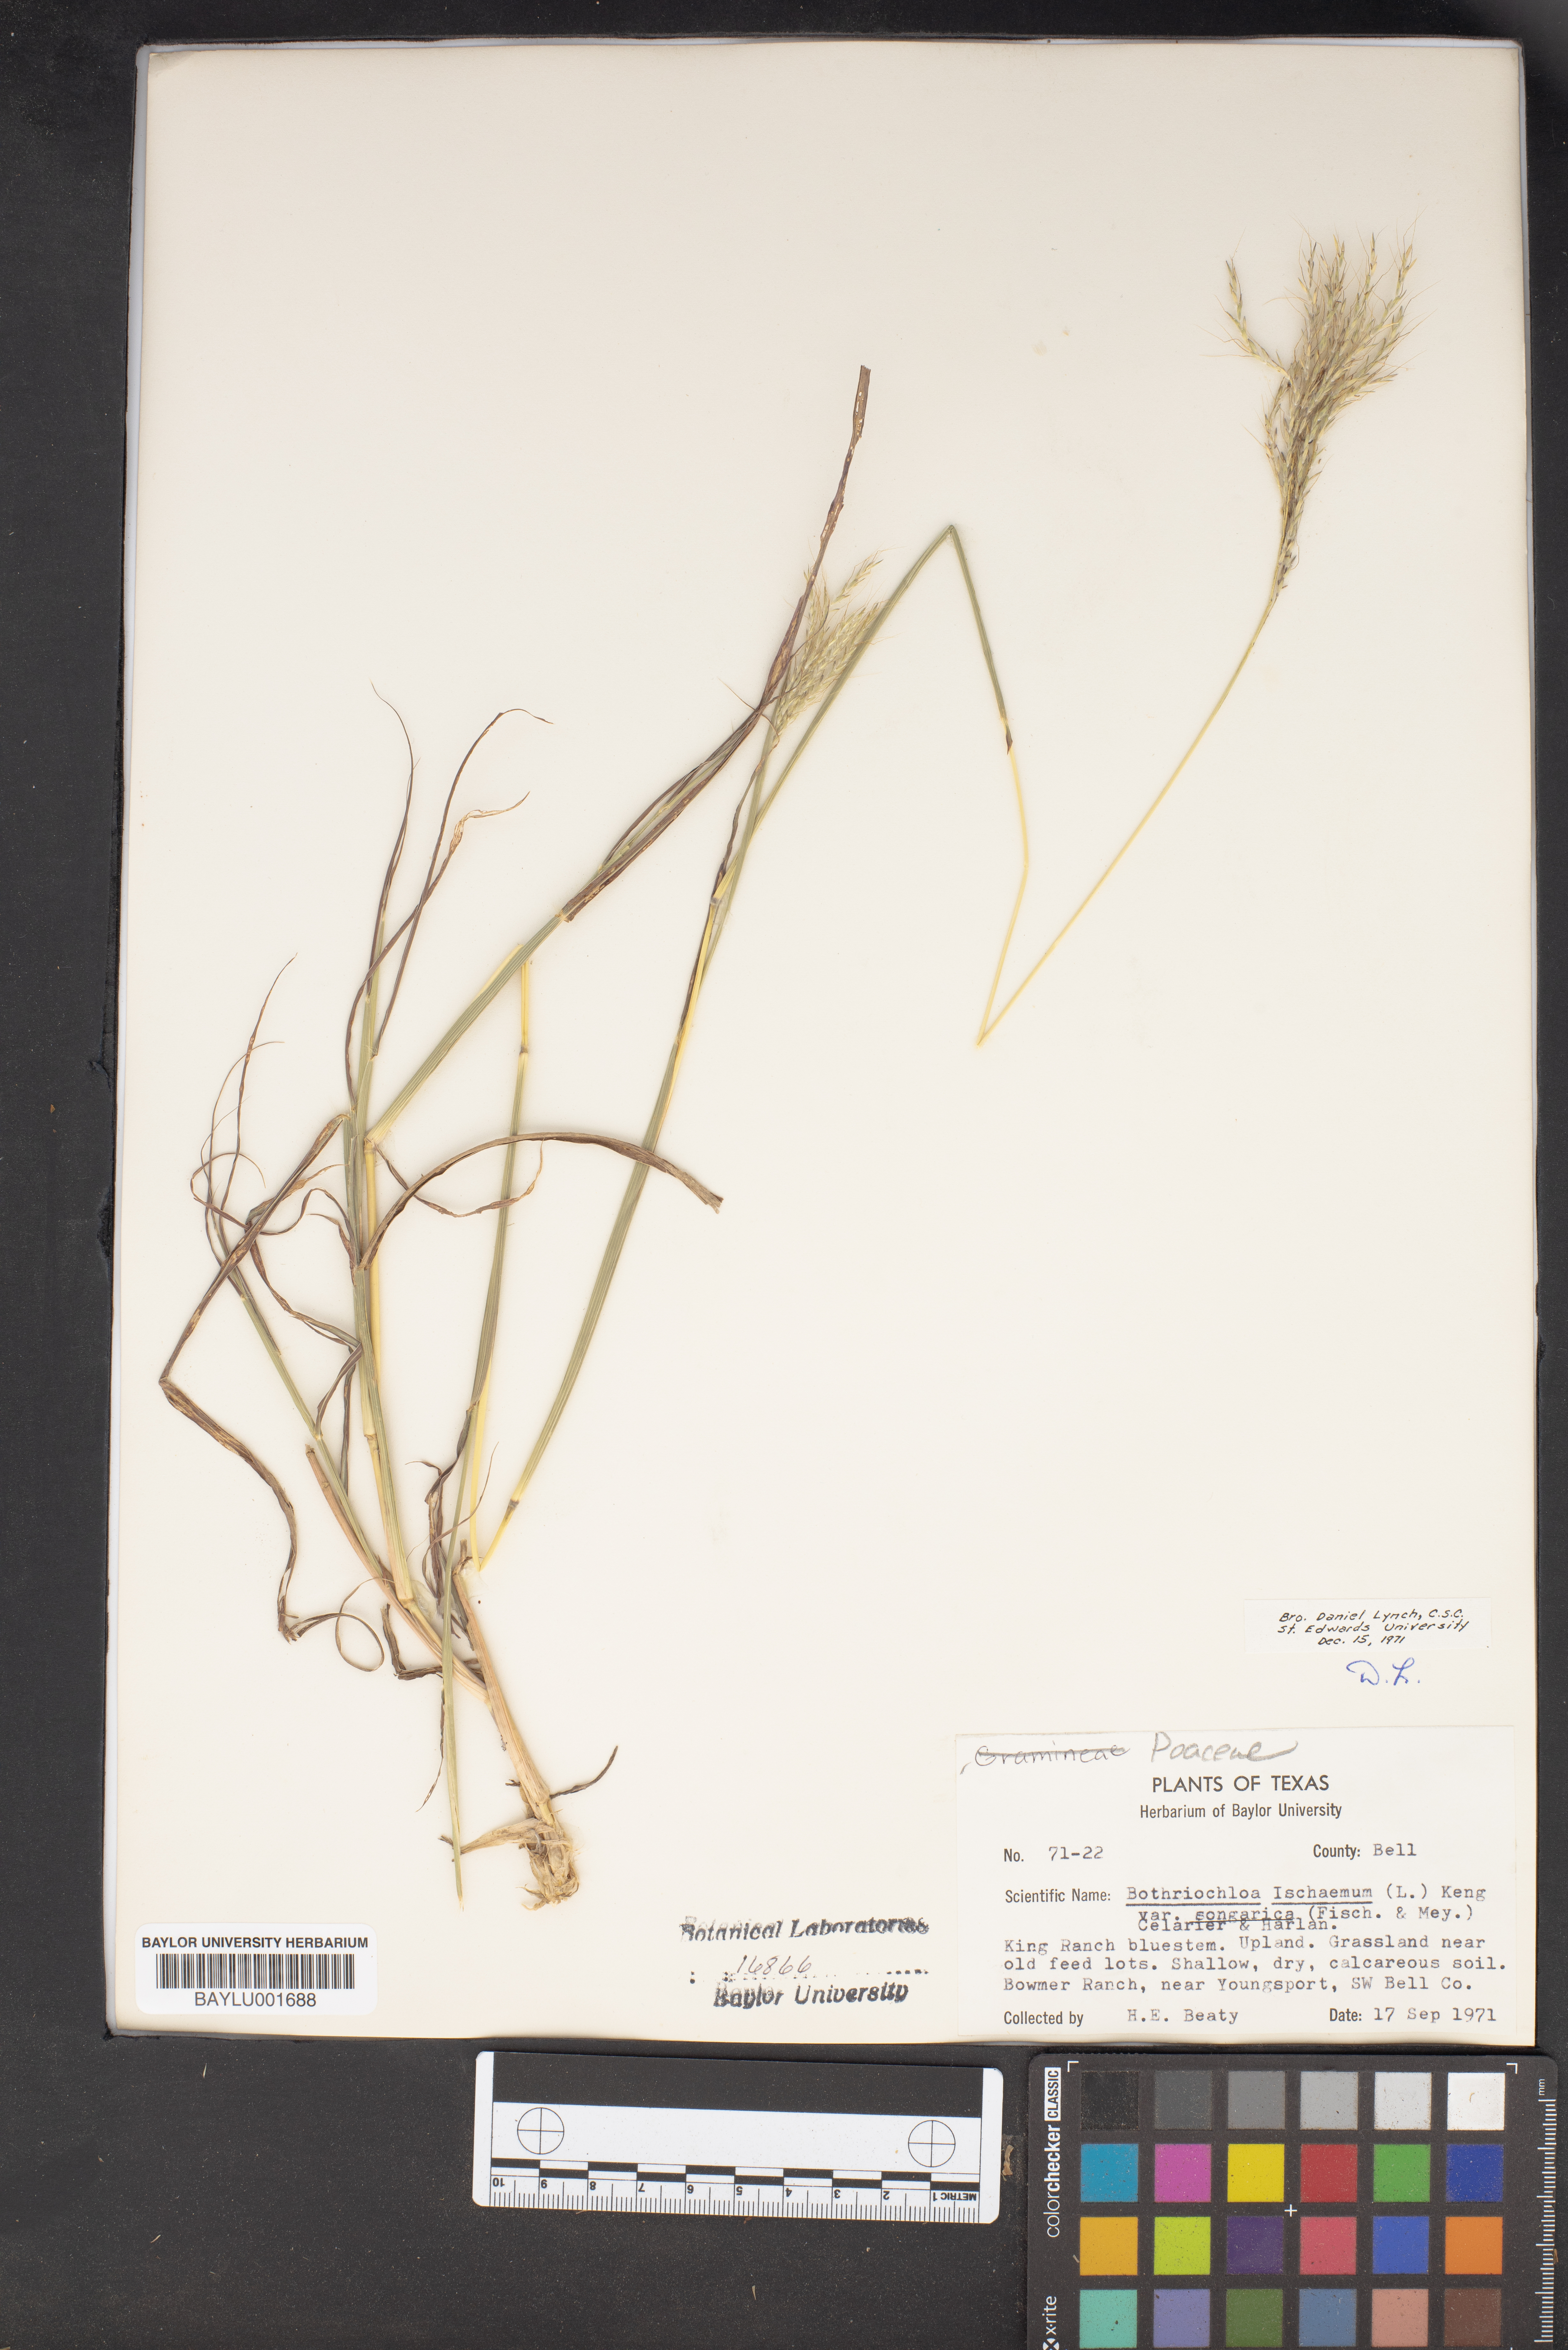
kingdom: Plantae
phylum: Tracheophyta
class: Liliopsida
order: Poales
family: Poaceae
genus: Bothriochloa
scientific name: Bothriochloa ischaemum
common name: Yellow bluestem
